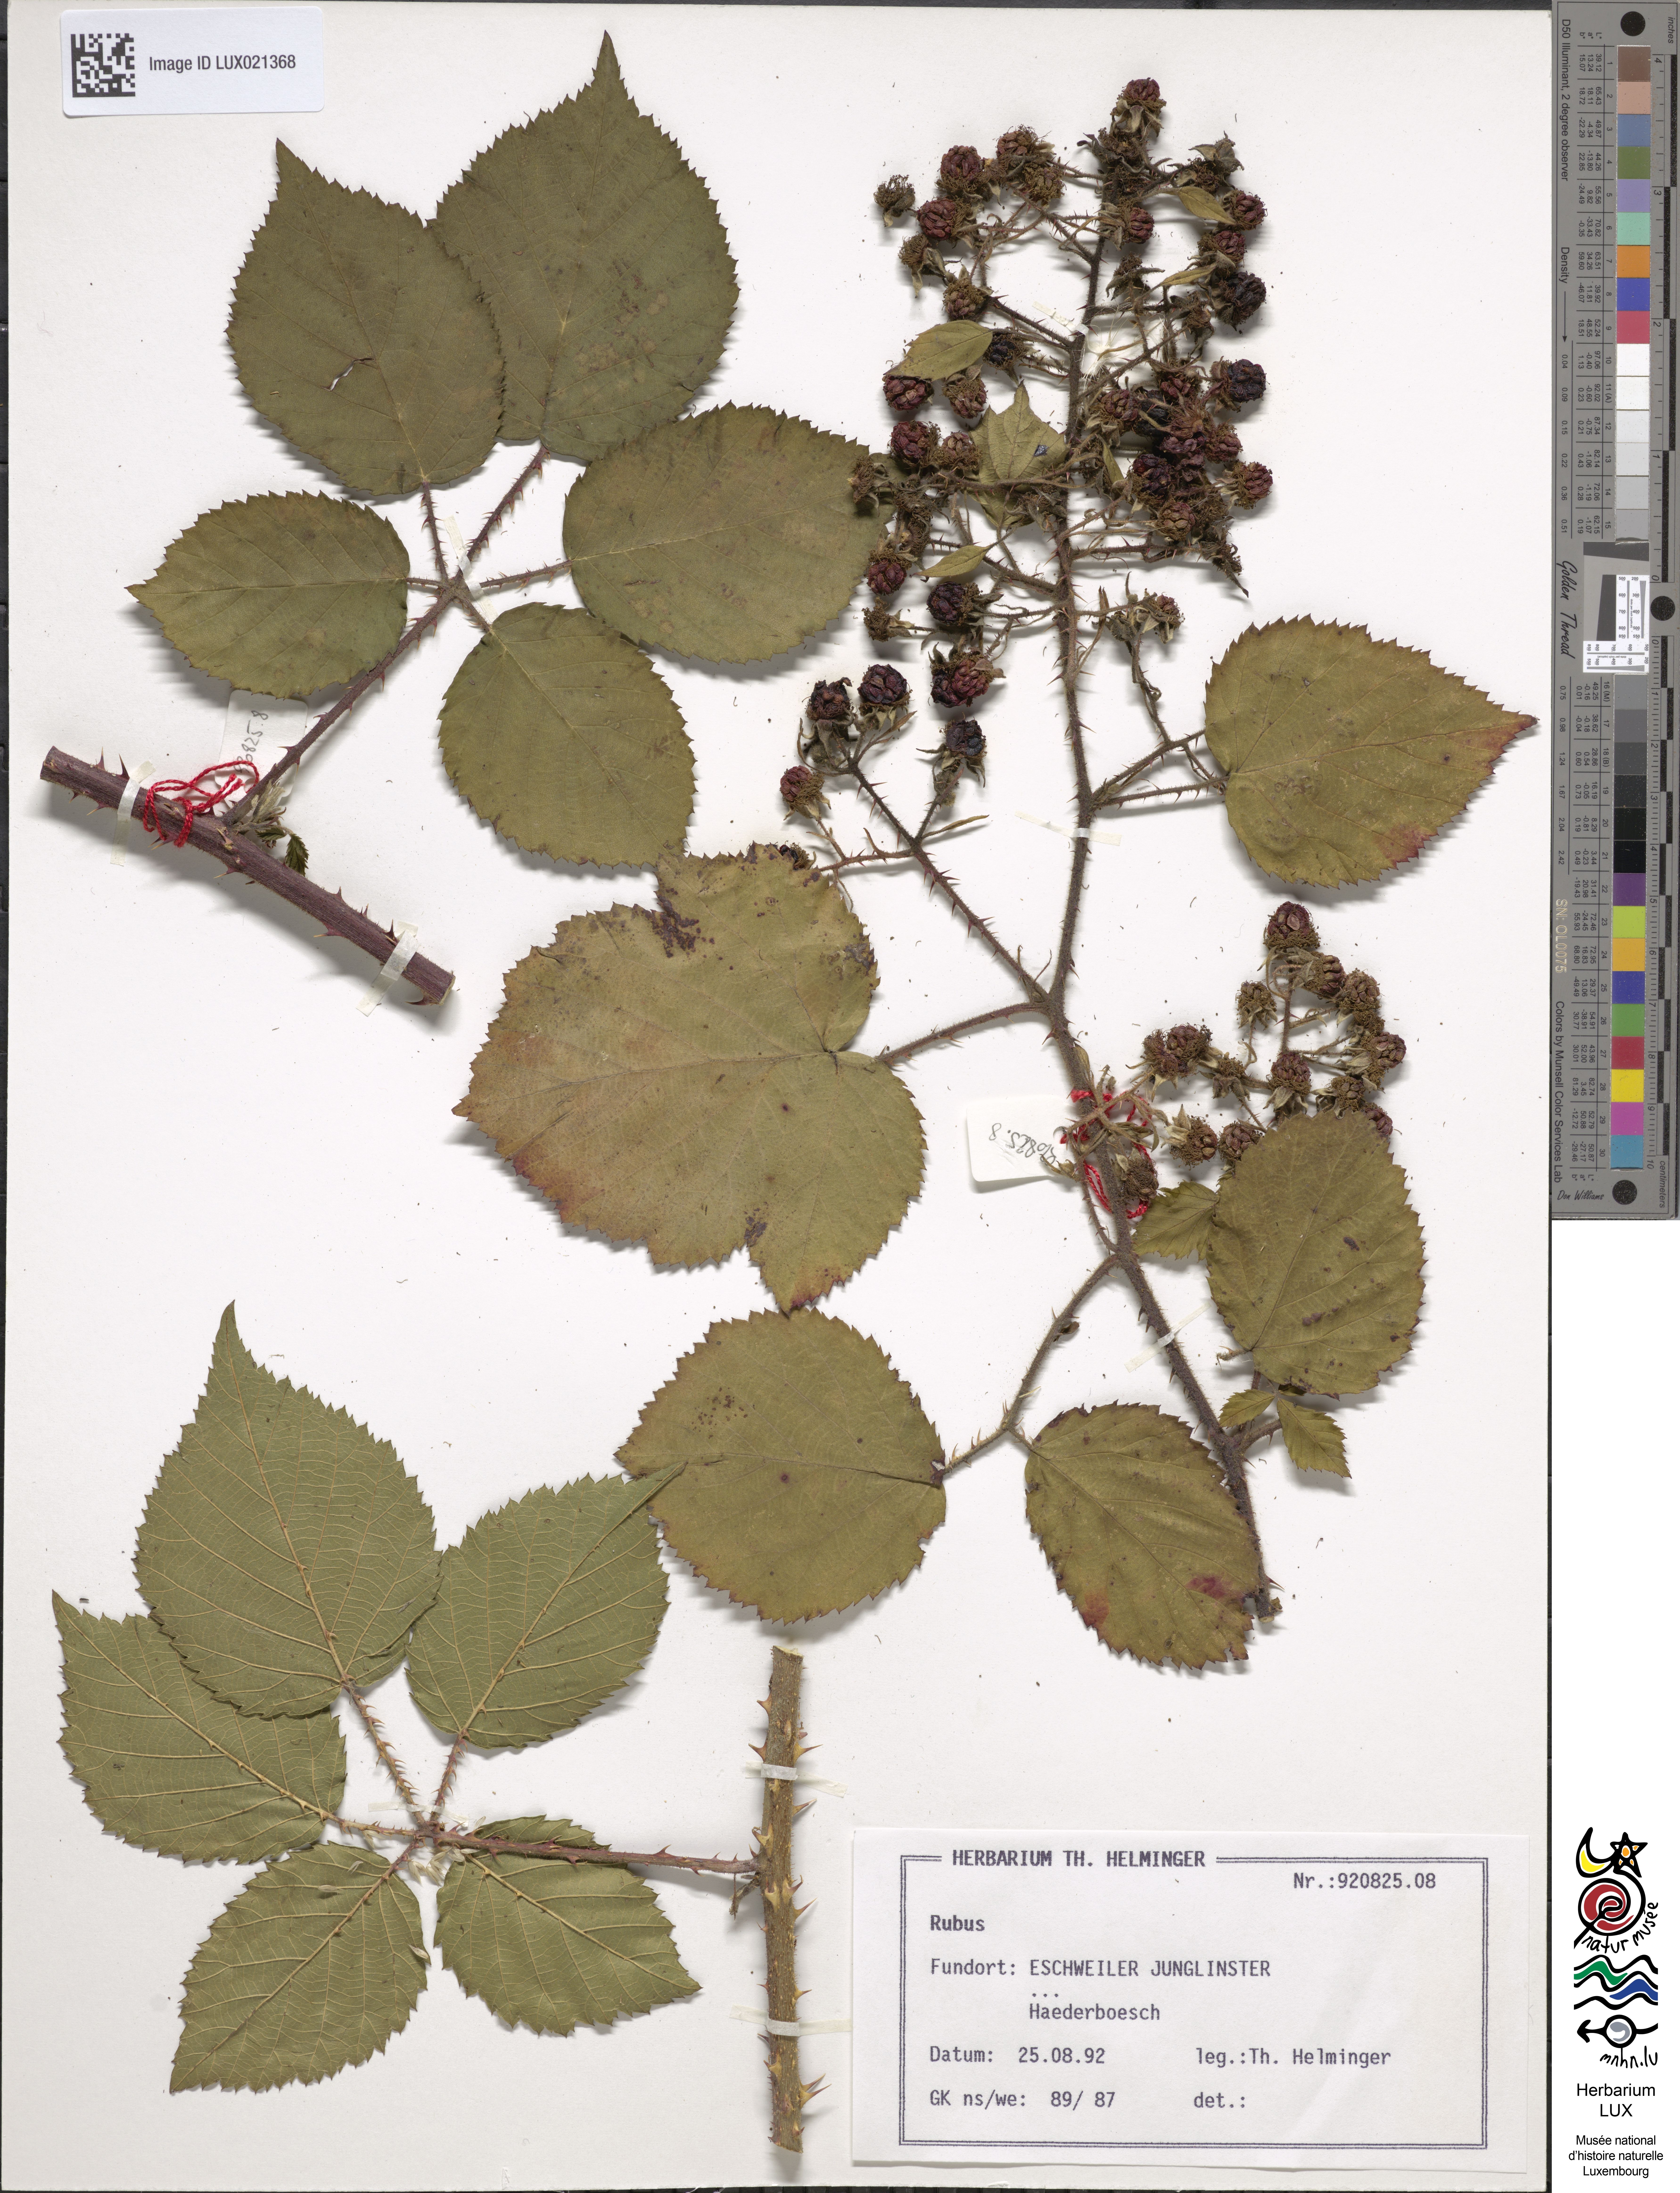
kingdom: Plantae
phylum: Tracheophyta
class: Magnoliopsida
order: Rosales
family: Rosaceae
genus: Rubus
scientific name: Rubus
